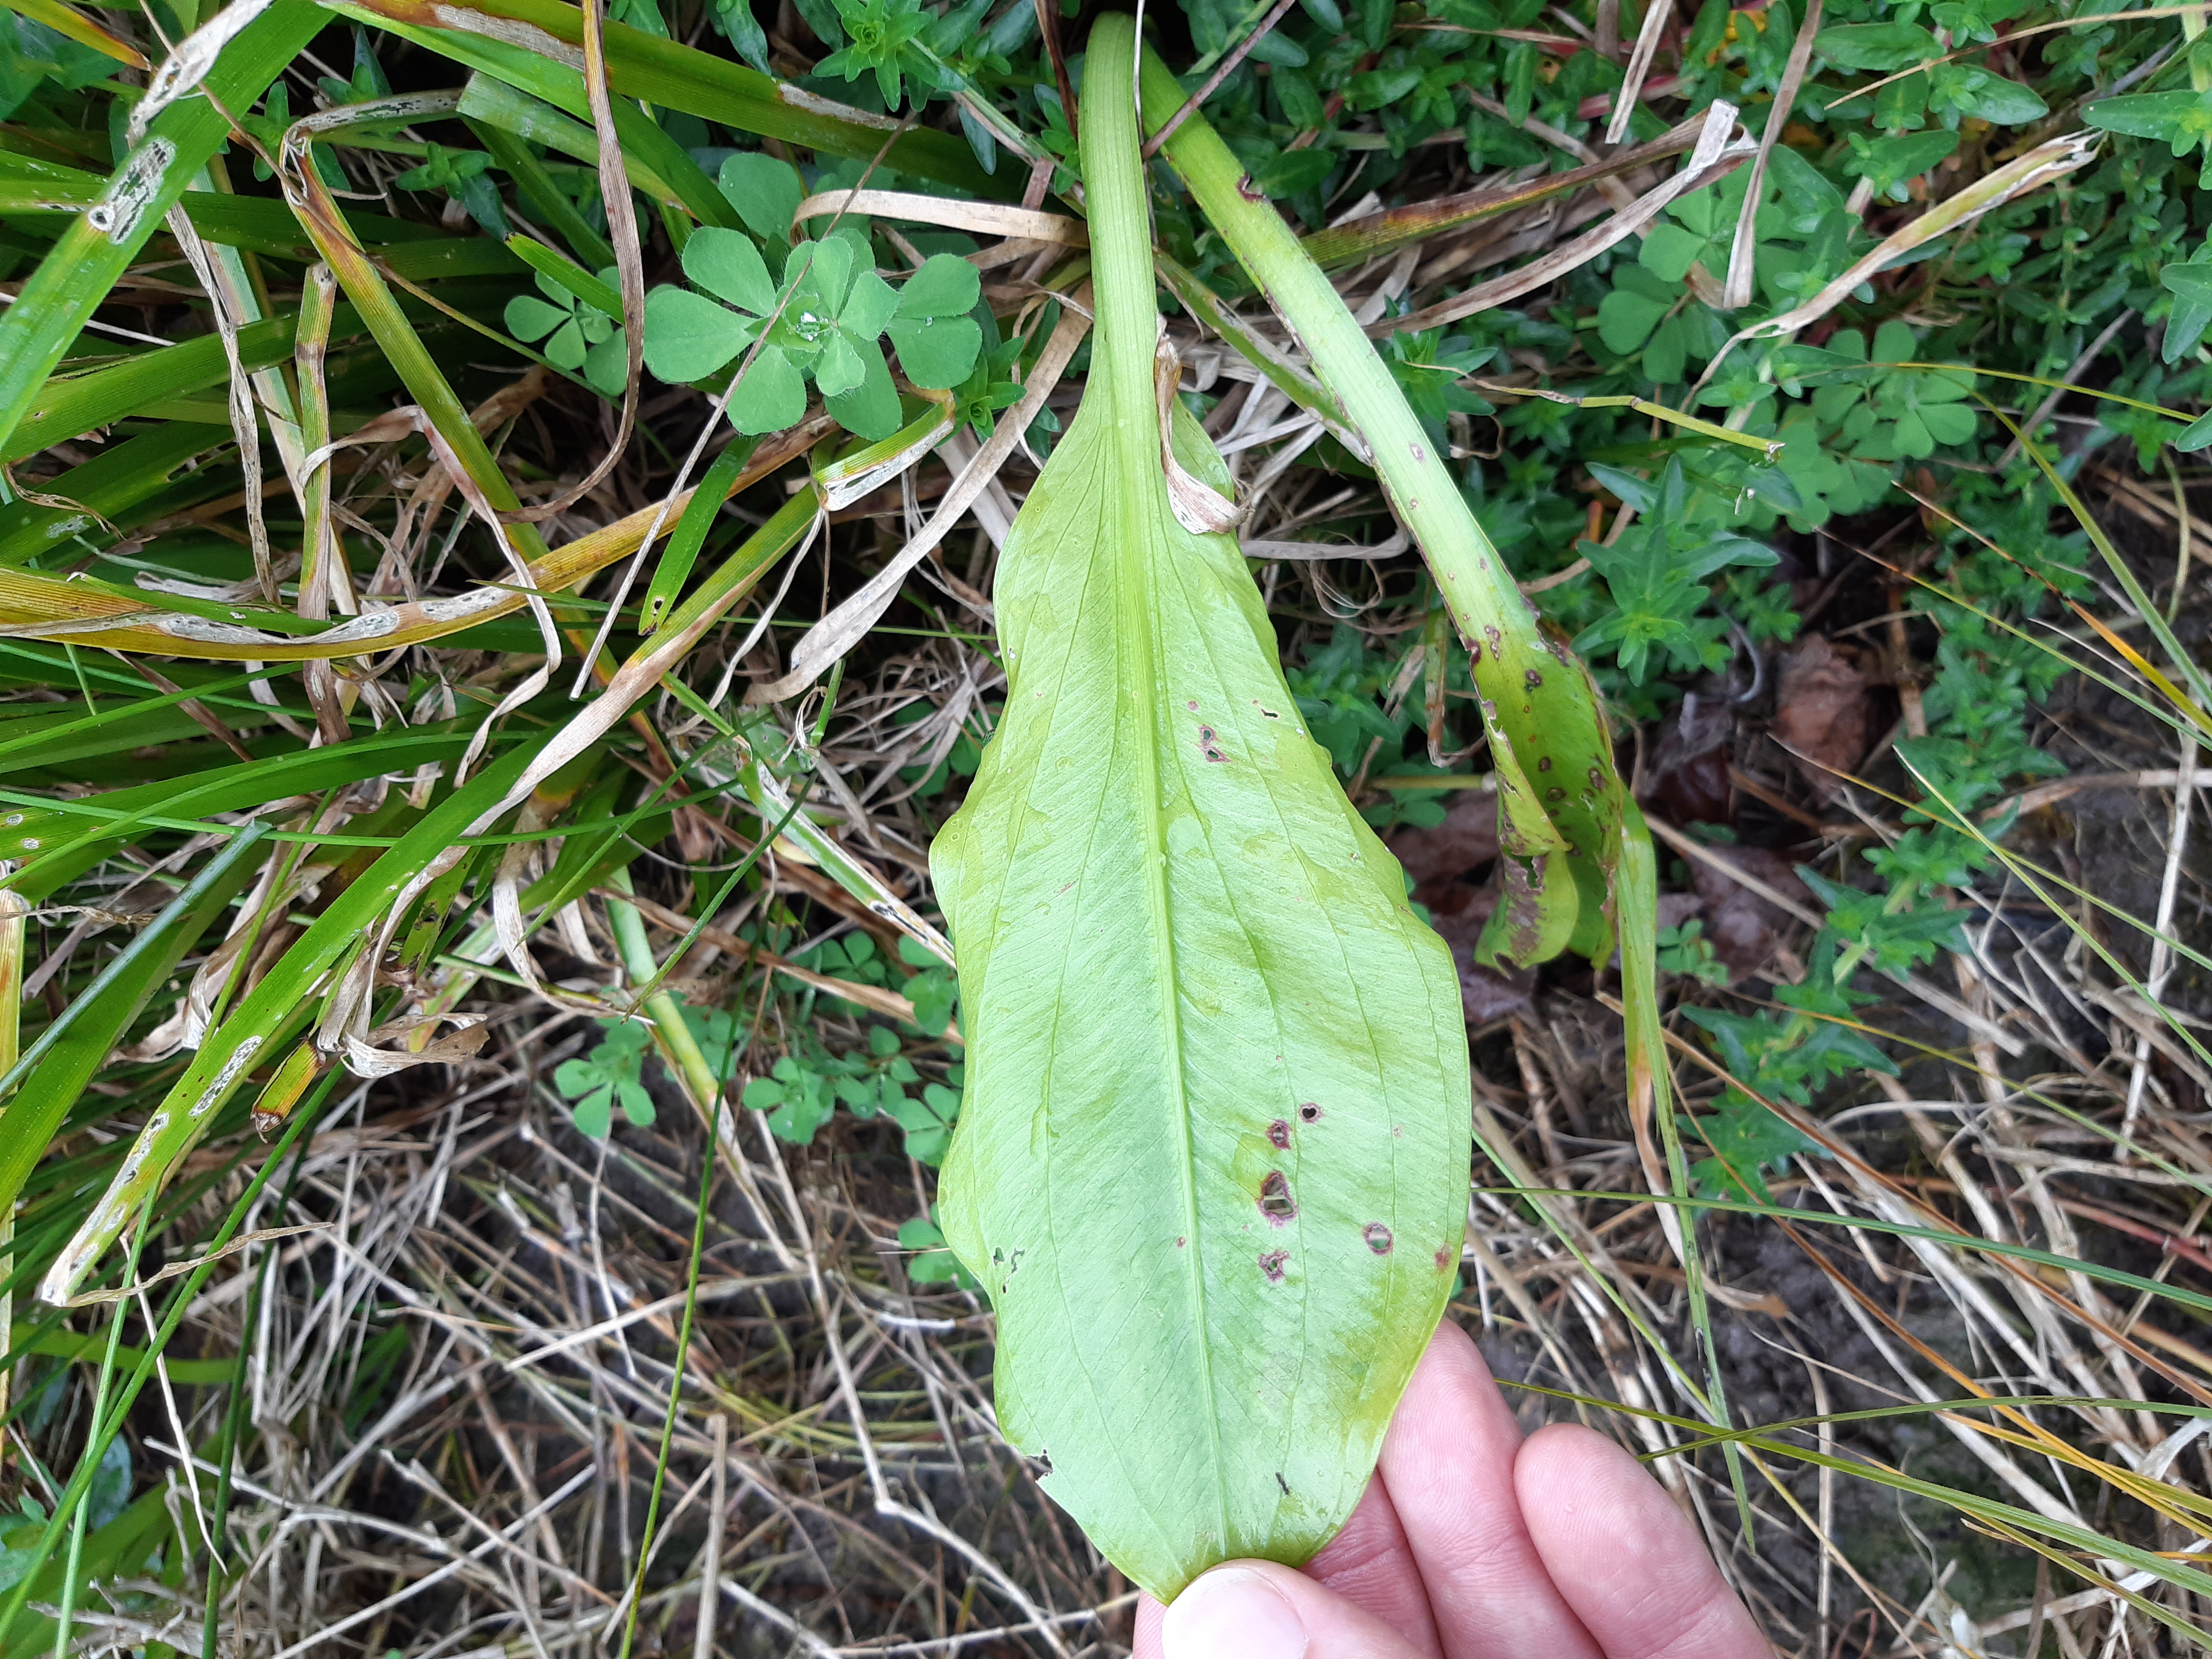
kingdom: Plantae
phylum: Tracheophyta
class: Liliopsida
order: Alismatales
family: Alismataceae
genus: Sagittaria
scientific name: Sagittaria platyphylla
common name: Broad-leaf arrowhead
